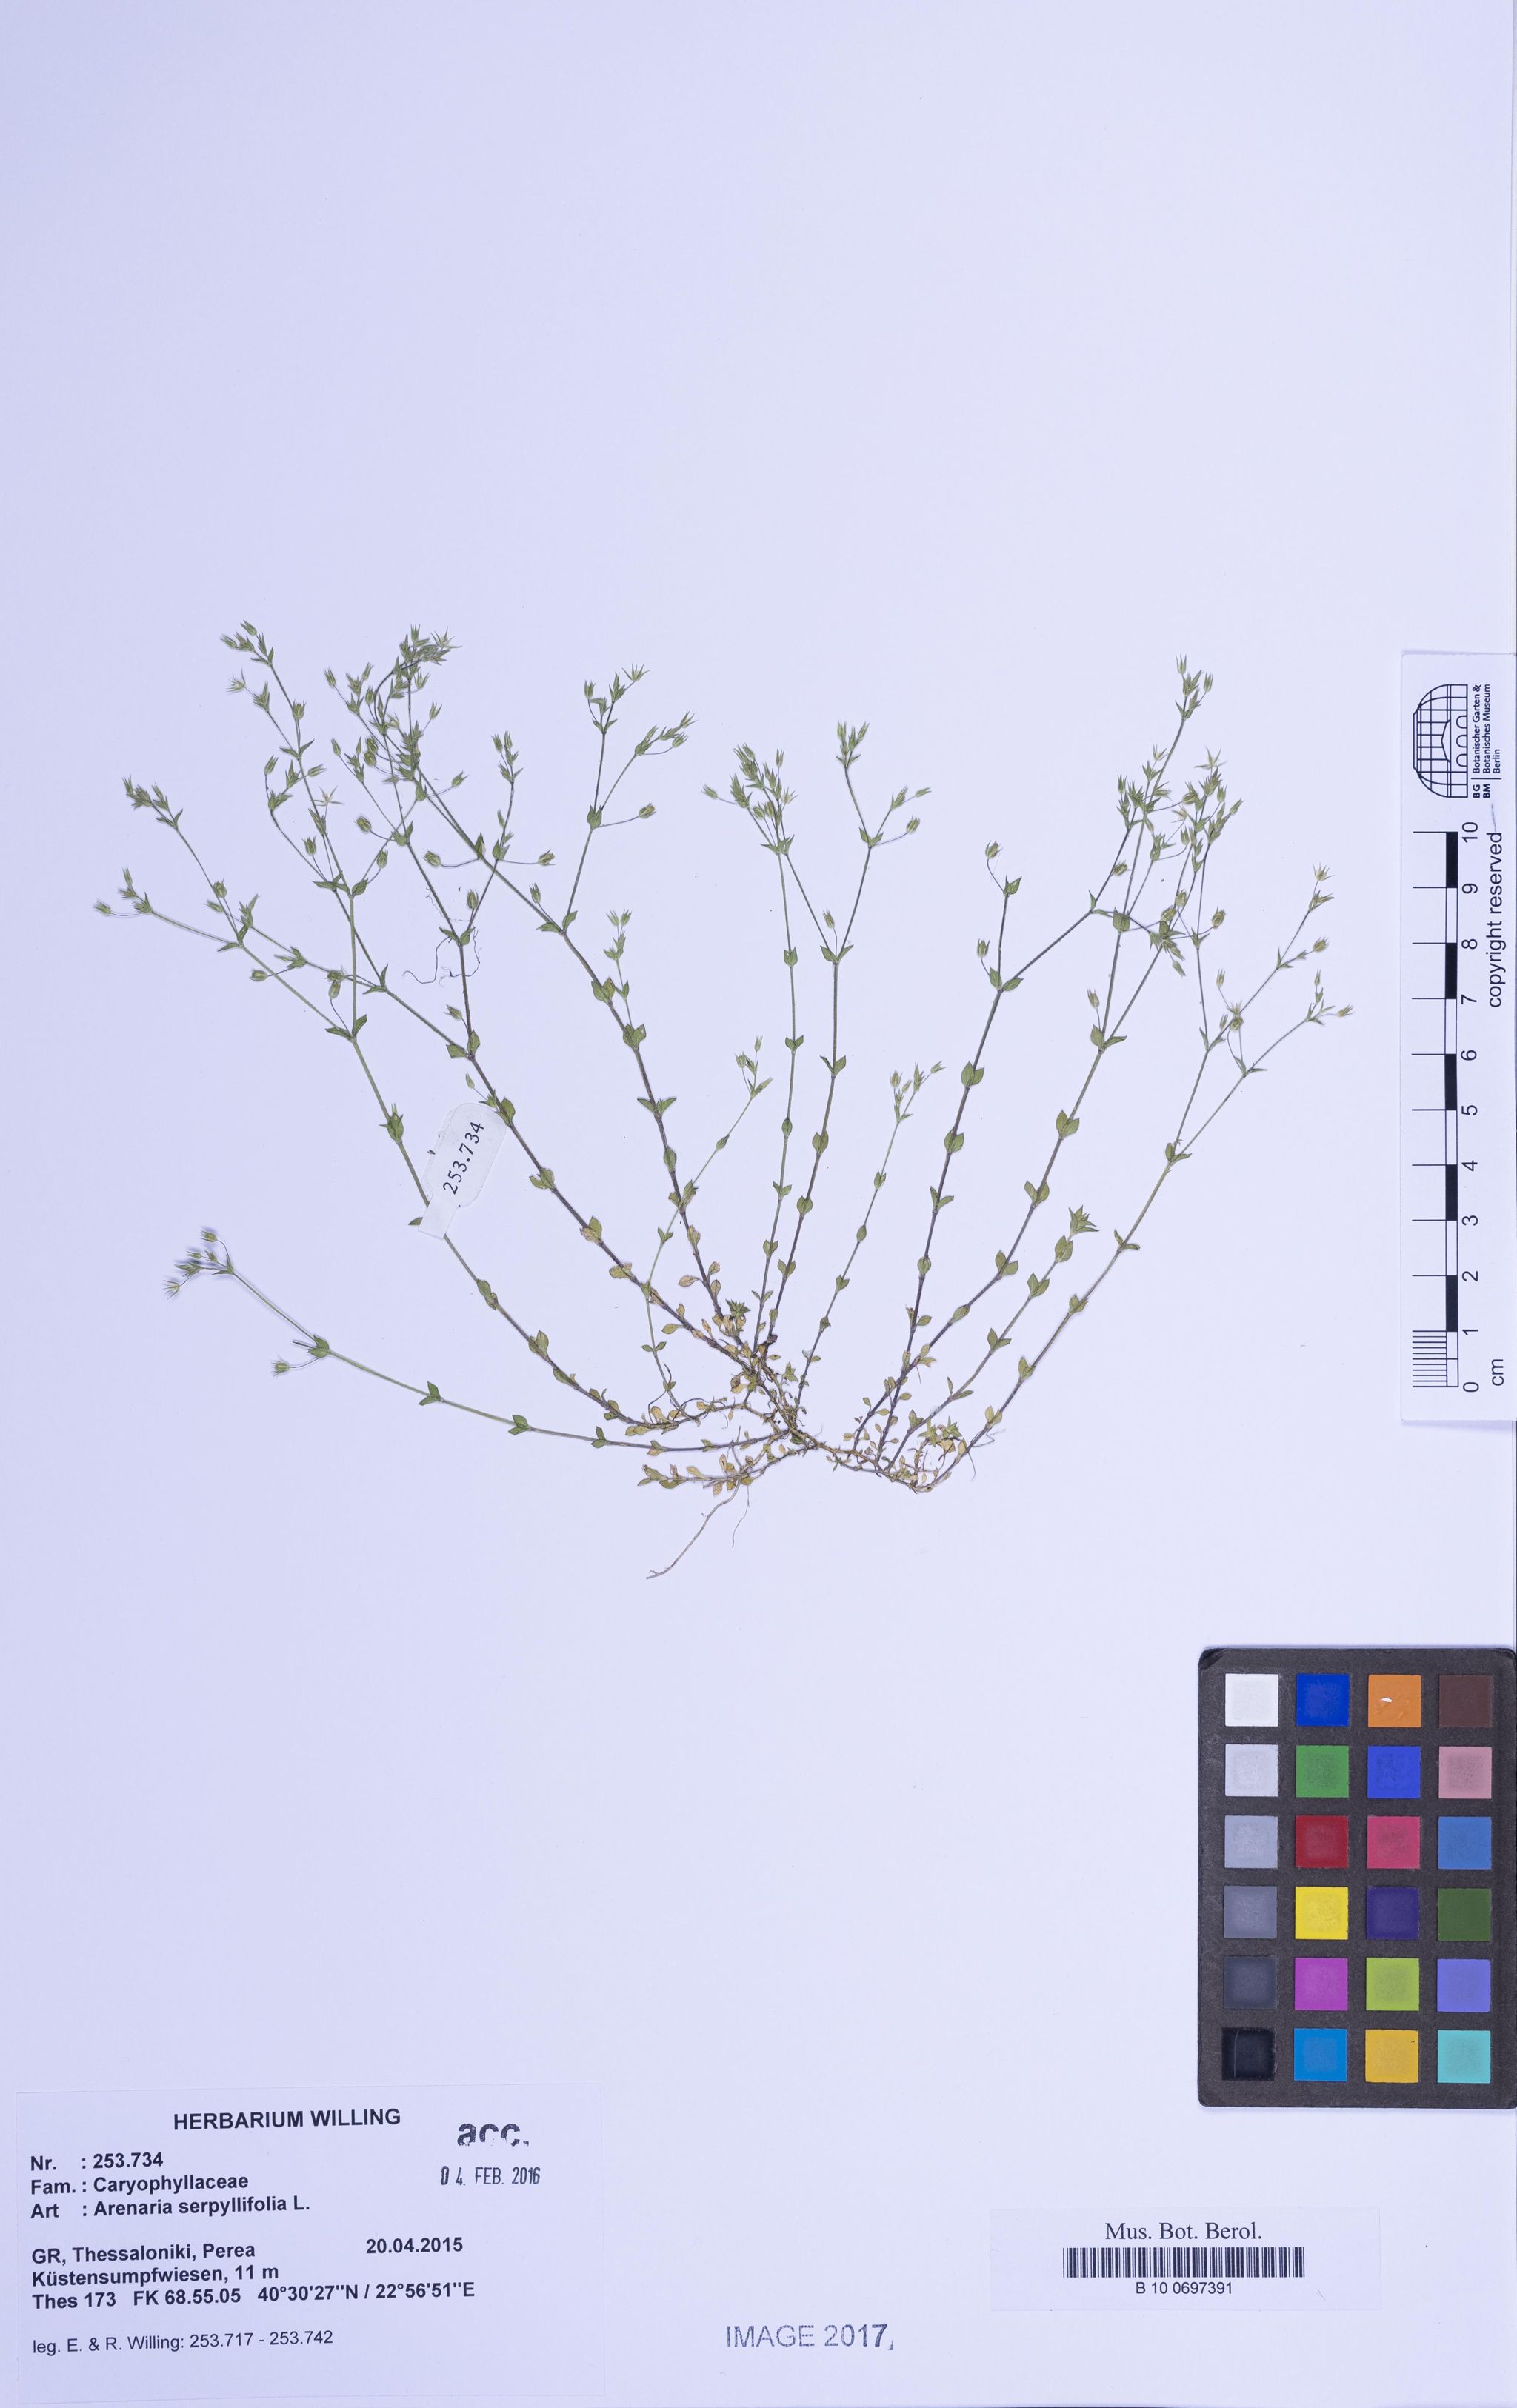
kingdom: Plantae
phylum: Tracheophyta
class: Magnoliopsida
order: Caryophyllales
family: Caryophyllaceae
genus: Arenaria
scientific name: Arenaria serpyllifolia
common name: Thyme-leaved sandwort
